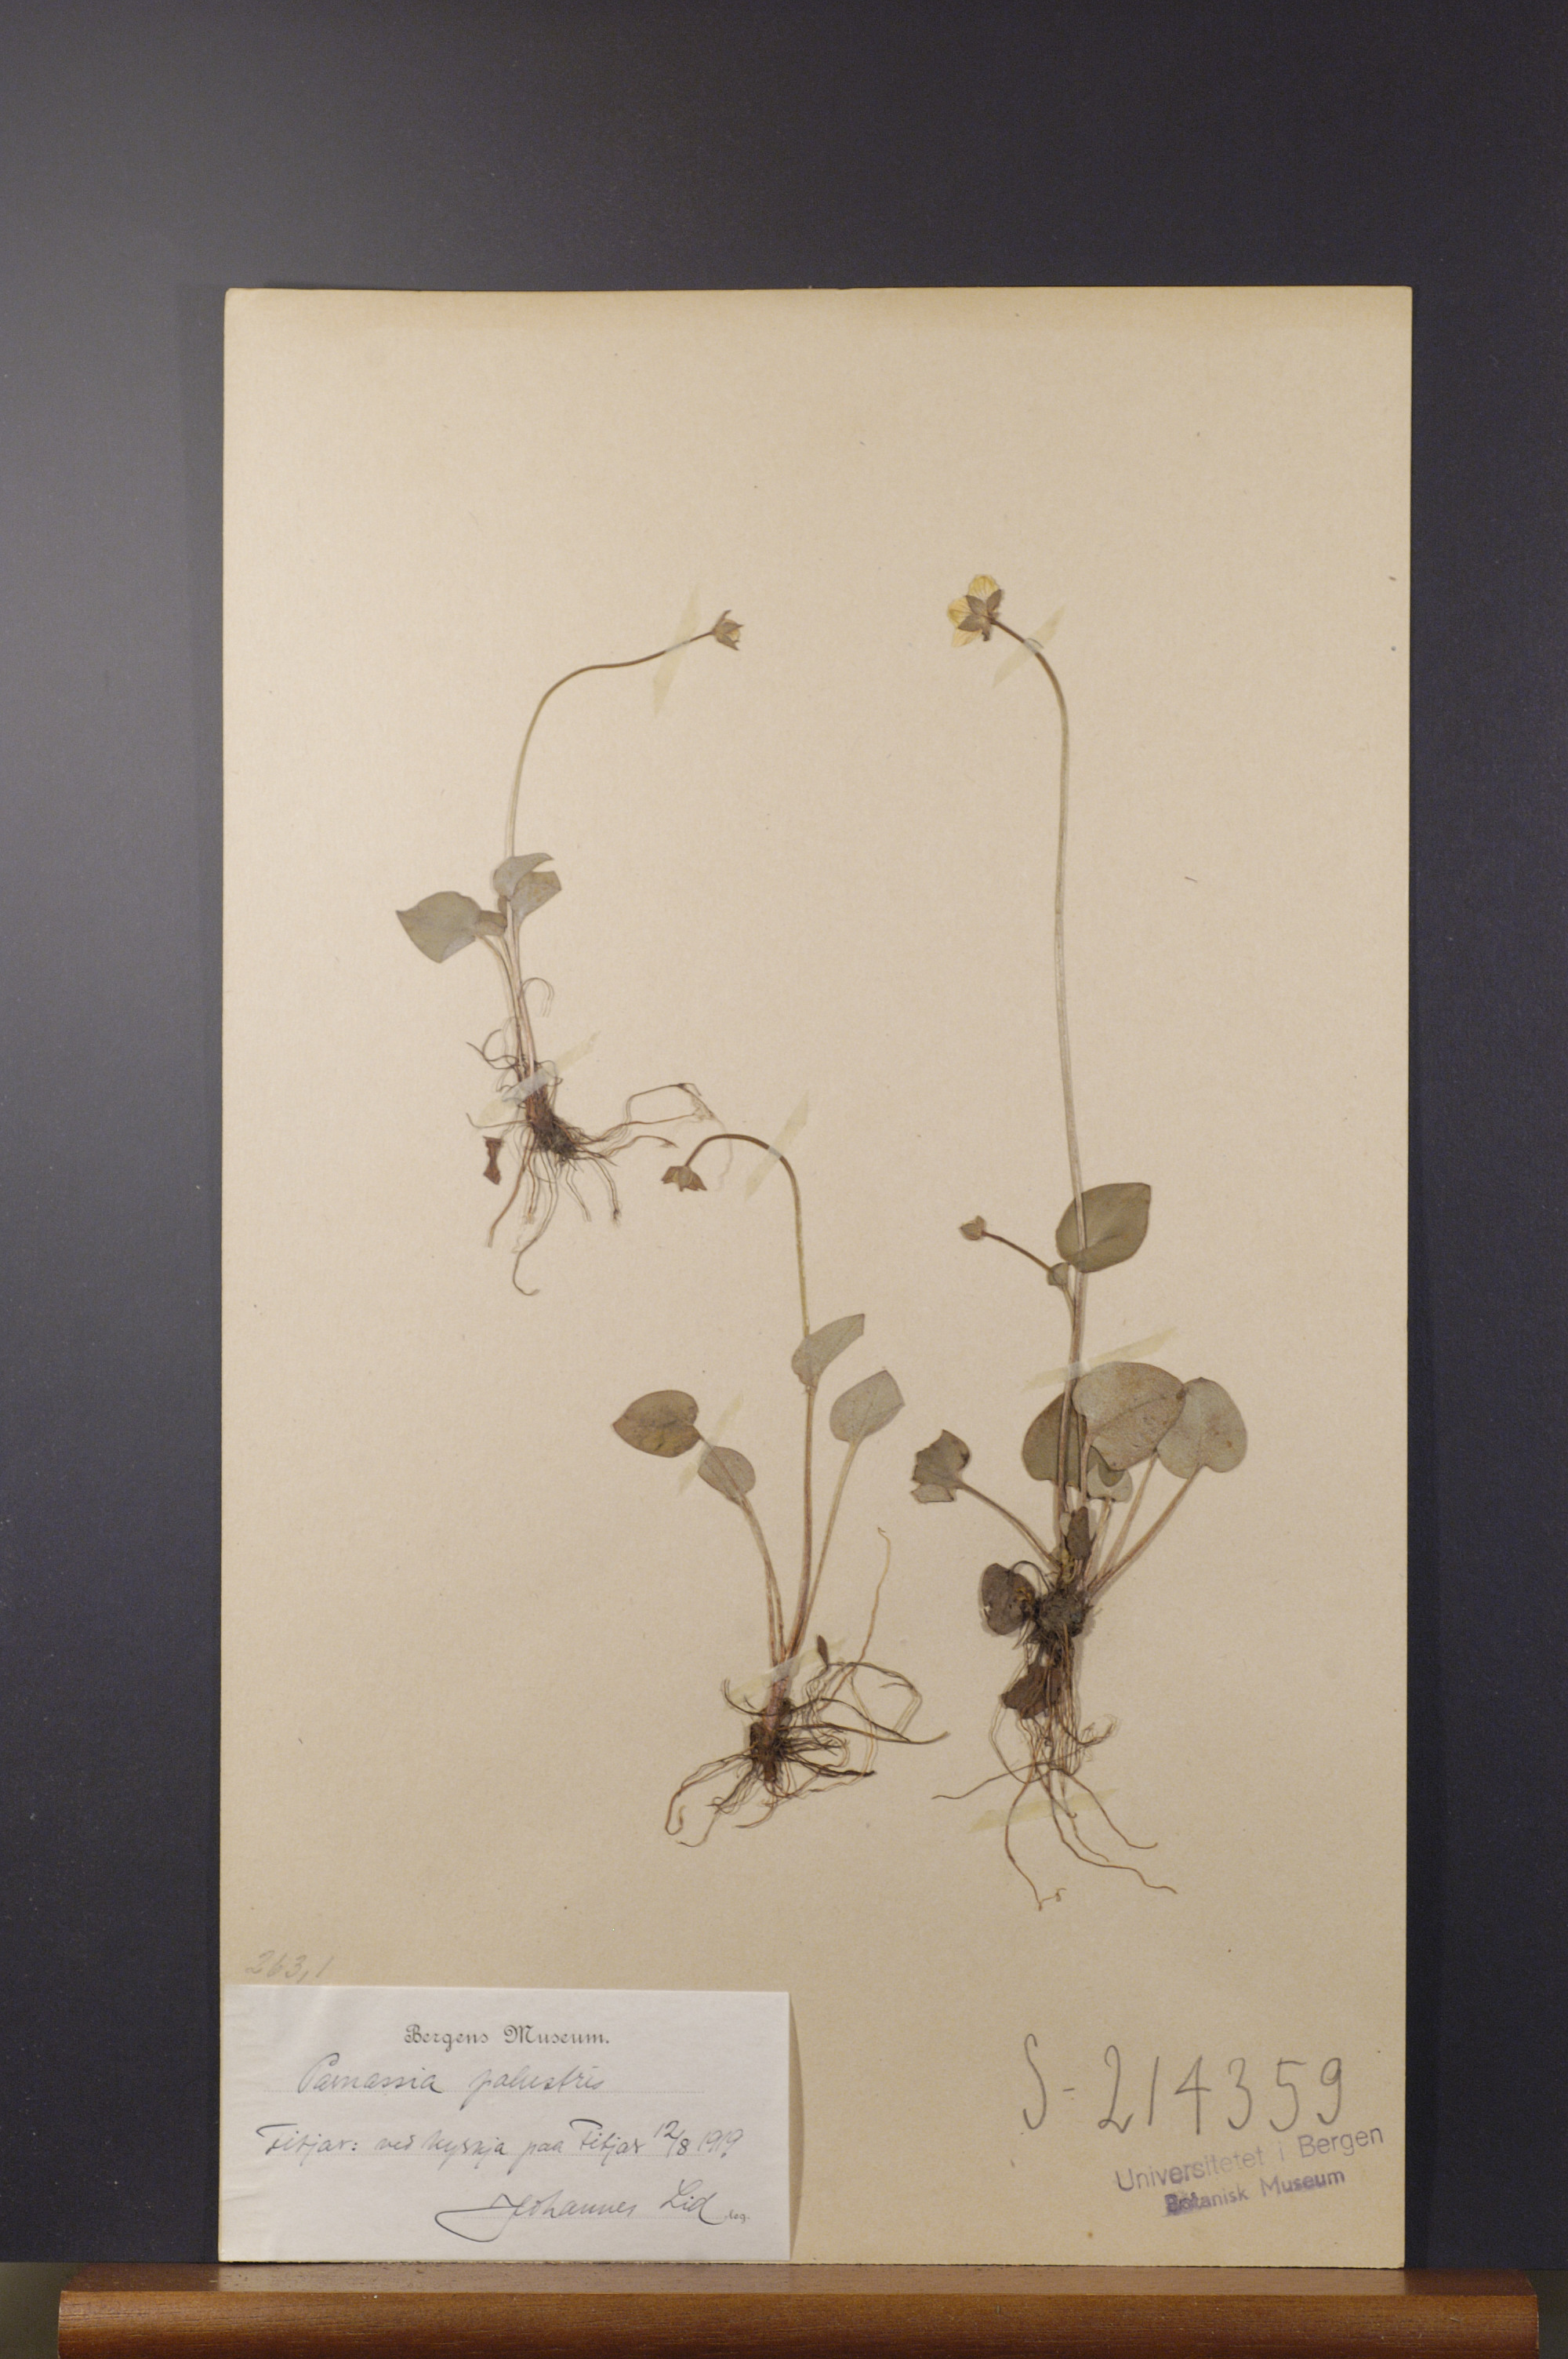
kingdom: Plantae
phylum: Tracheophyta
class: Magnoliopsida
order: Celastrales
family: Parnassiaceae
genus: Parnassia
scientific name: Parnassia palustris
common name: Grass-of-parnassus
